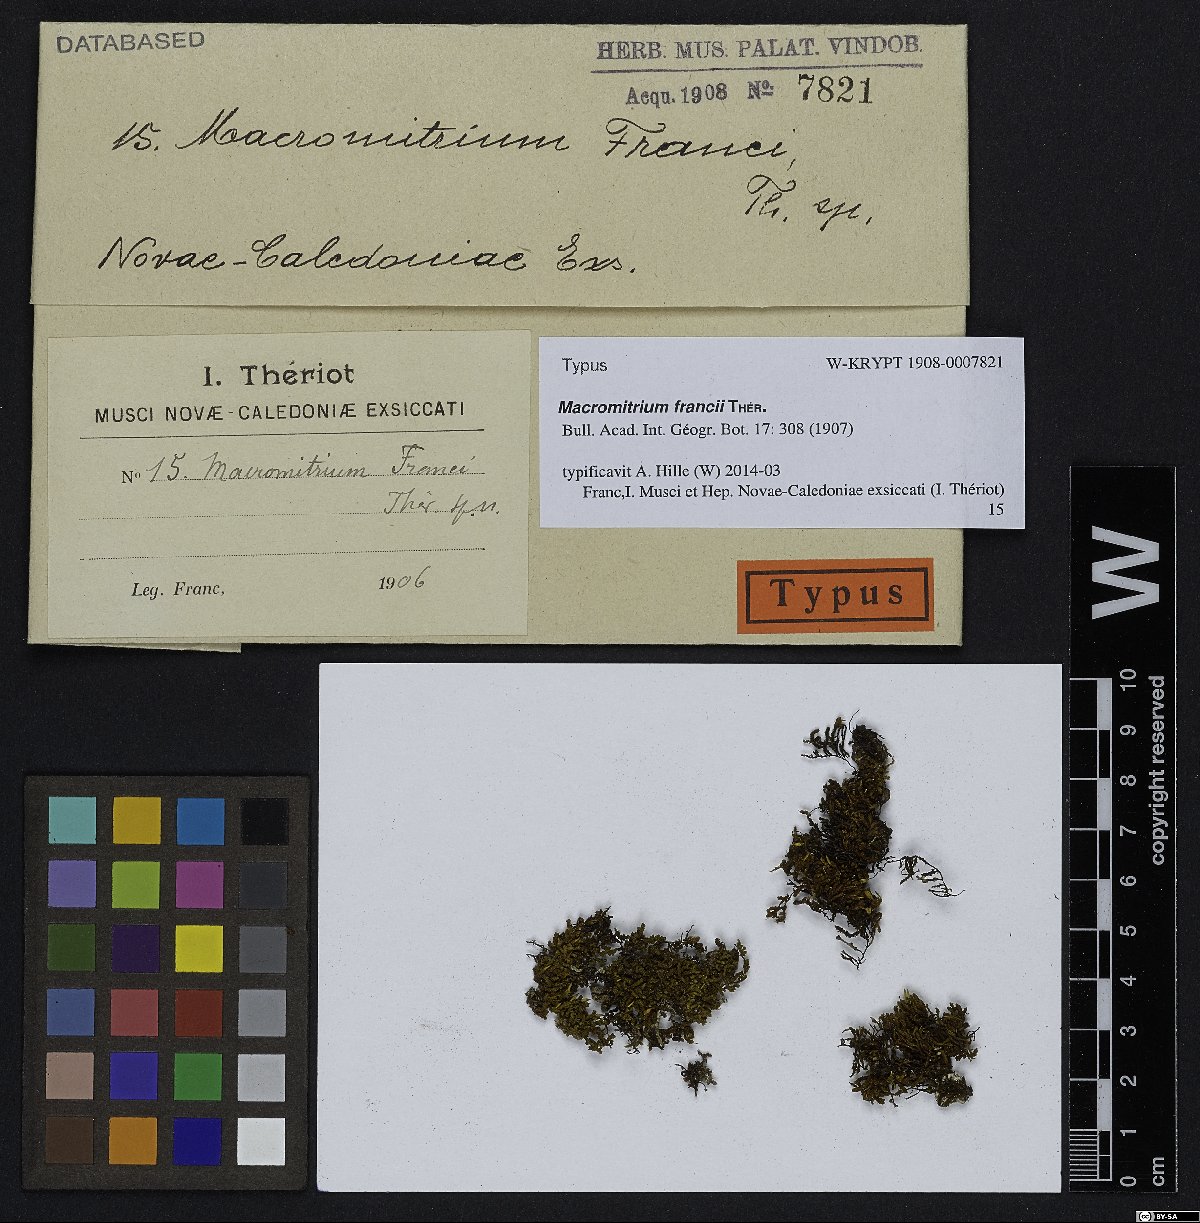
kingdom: Plantae
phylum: Bryophyta
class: Bryopsida
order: Orthotrichales
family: Orthotrichaceae
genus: Macromitrium
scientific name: Macromitrium francii
